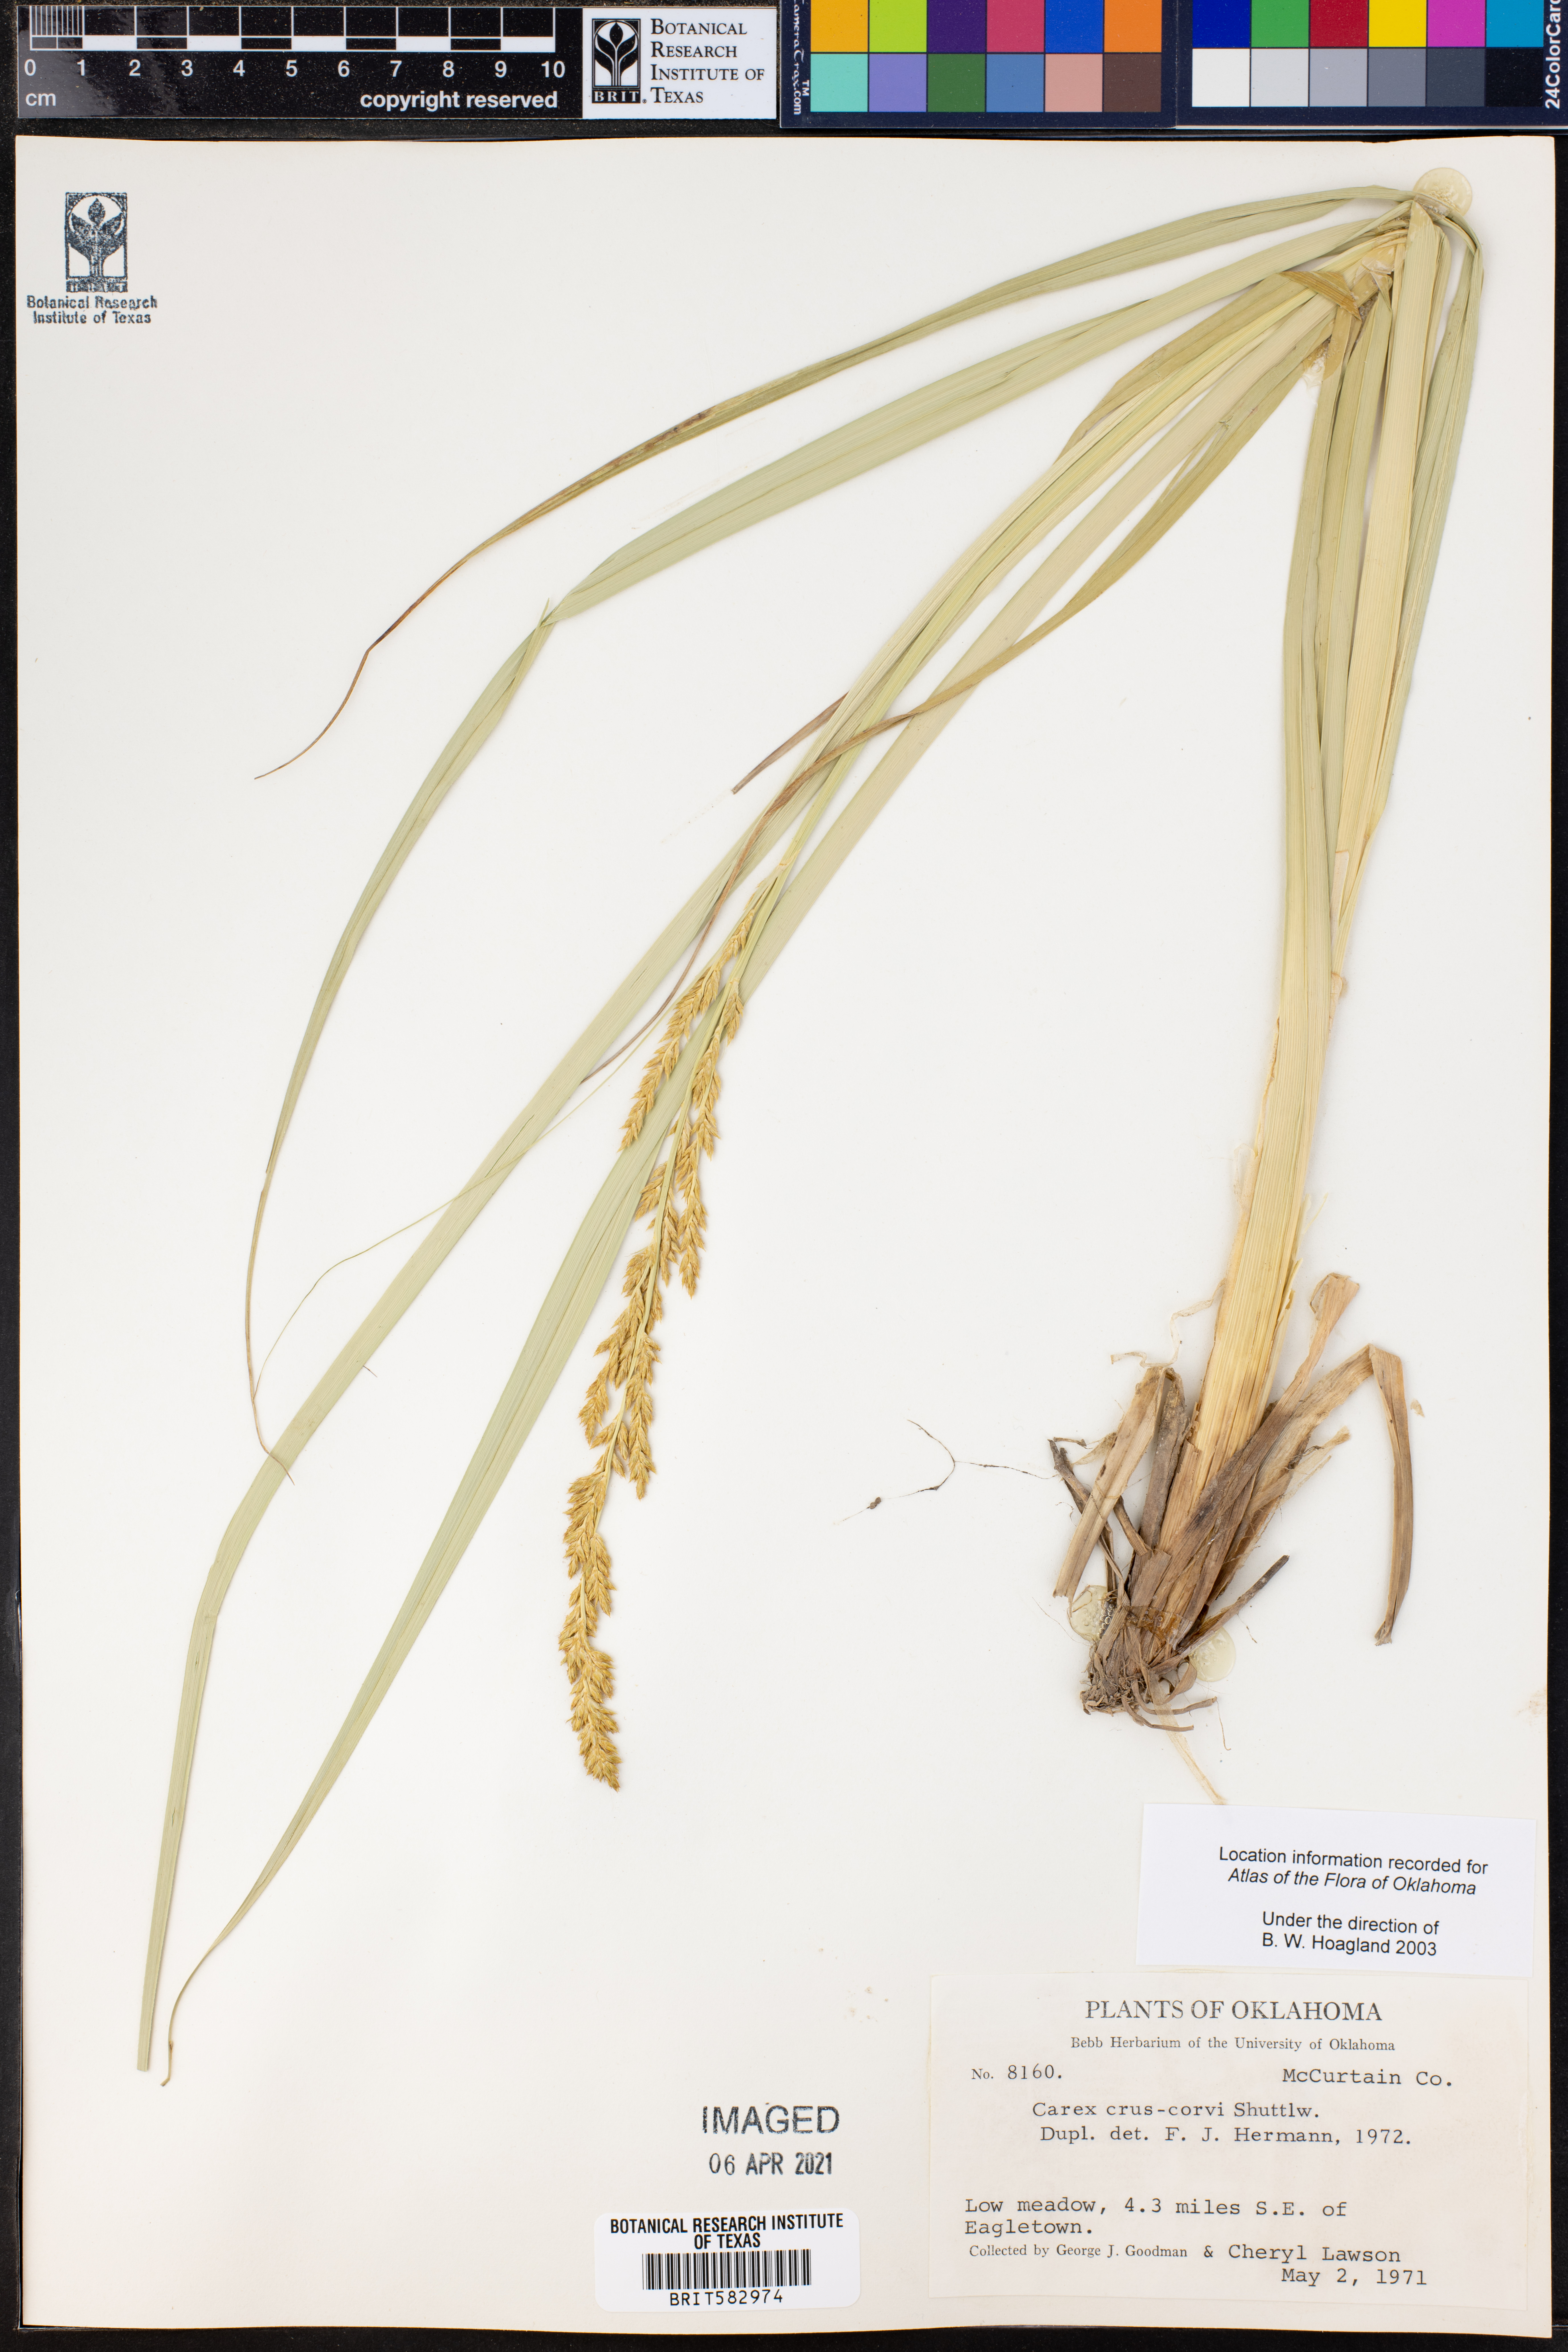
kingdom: Plantae
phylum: Tracheophyta
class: Liliopsida
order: Poales
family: Cyperaceae
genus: Carex
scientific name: Carex crus-corvi
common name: Crow-spur sedge
